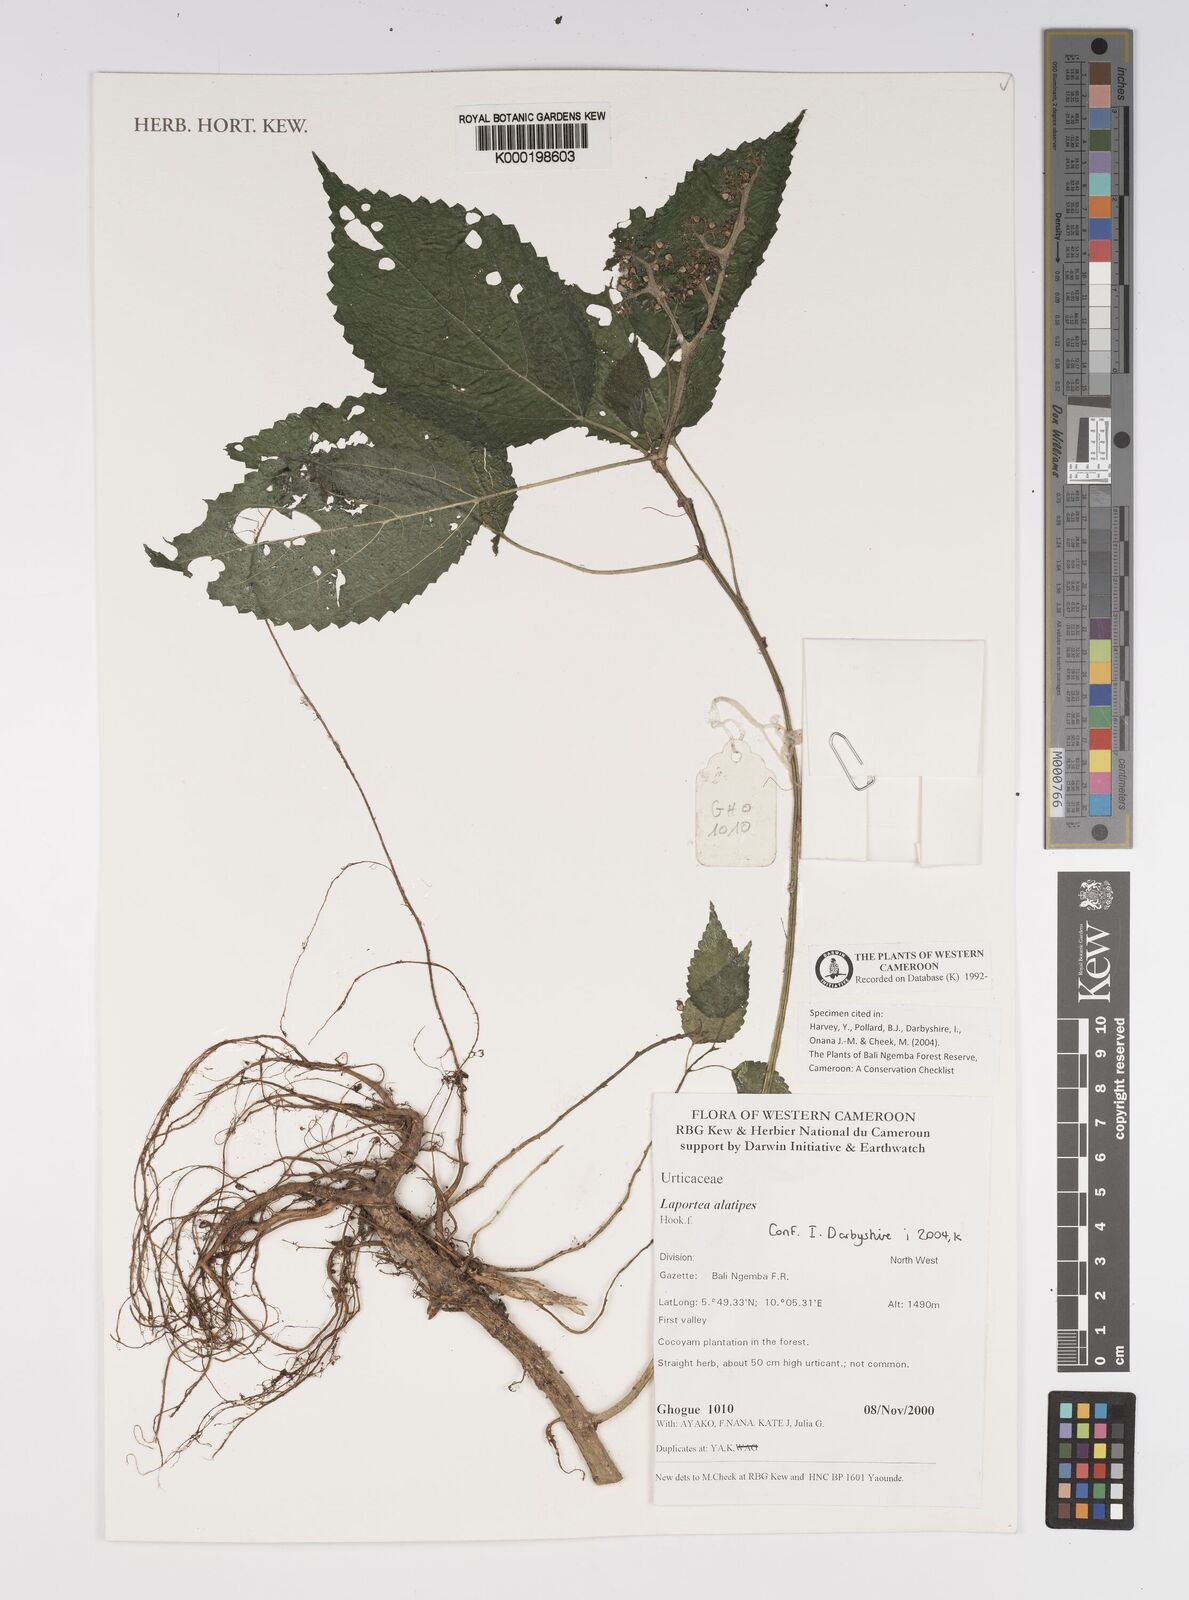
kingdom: Plantae
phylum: Tracheophyta
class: Magnoliopsida
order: Rosales
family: Urticaceae
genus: Laportea
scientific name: Laportea alatipes
